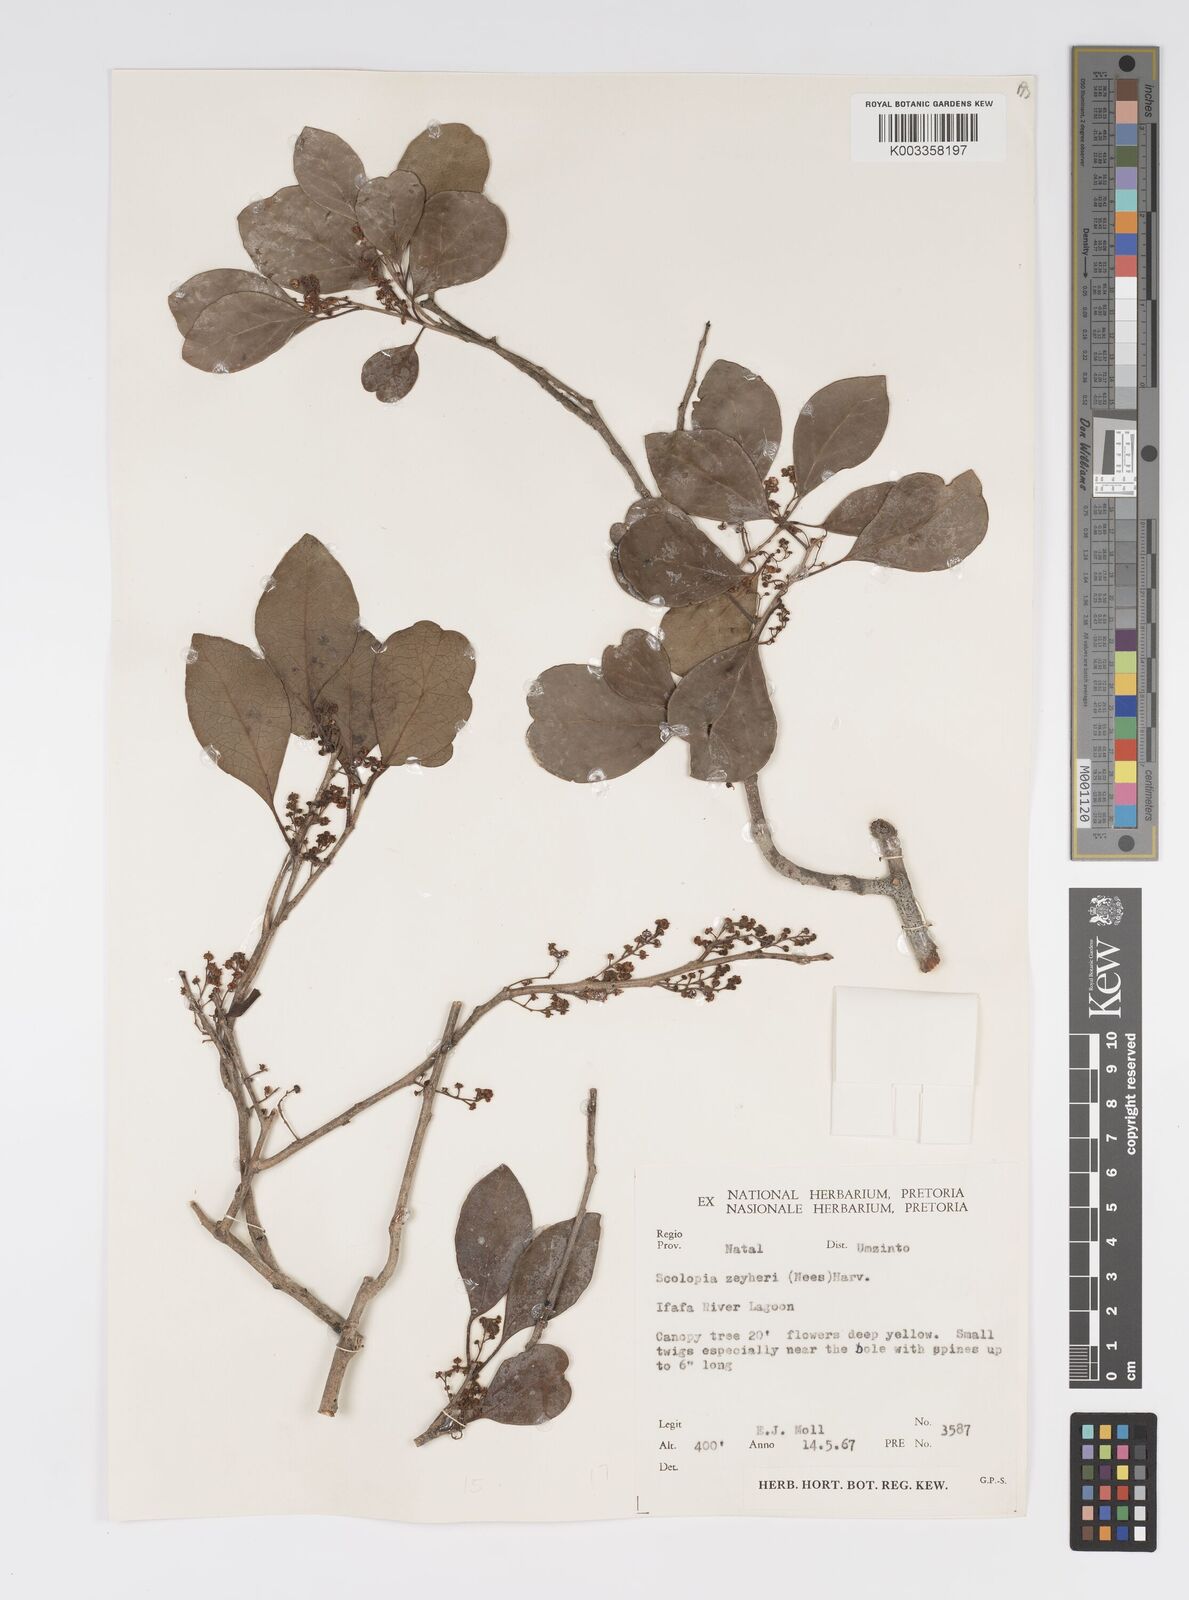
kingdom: Plantae
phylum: Tracheophyta
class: Magnoliopsida
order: Malpighiales
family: Salicaceae
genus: Scolopia
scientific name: Scolopia zeyheri
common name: Thorn pear
